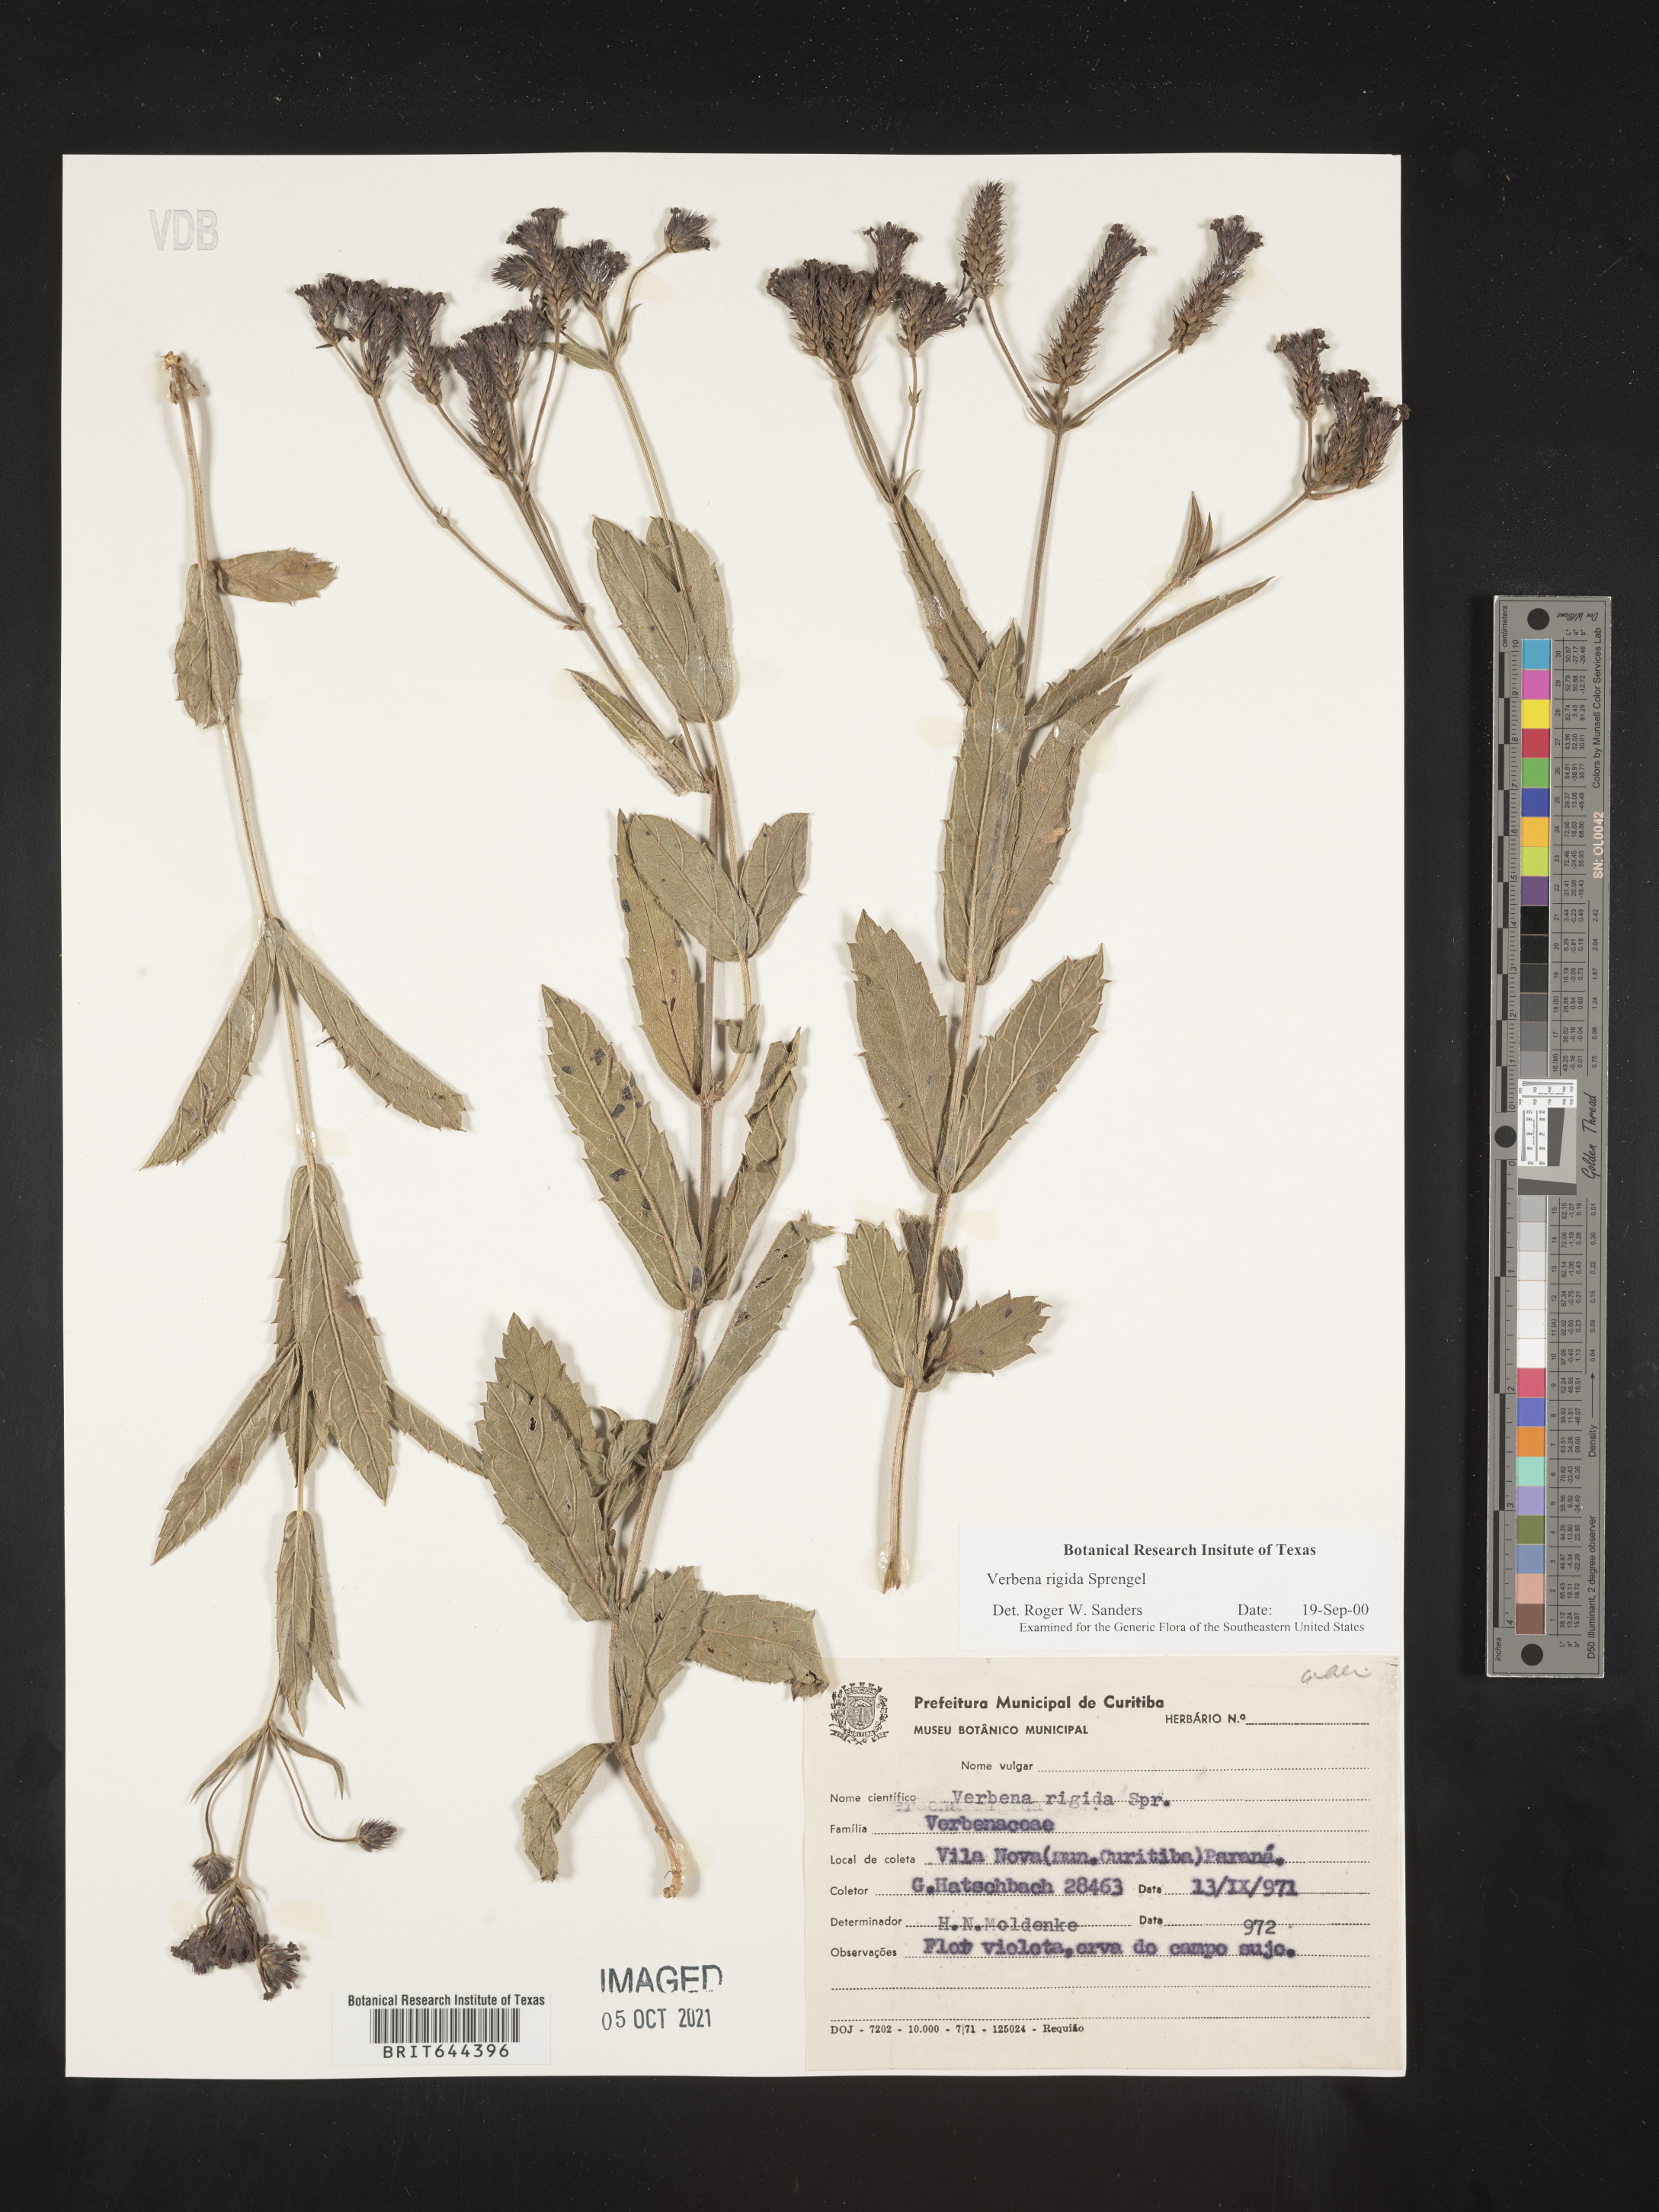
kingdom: Plantae
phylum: Tracheophyta
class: Magnoliopsida
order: Lamiales
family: Verbenaceae
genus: Verbena
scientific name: Verbena
